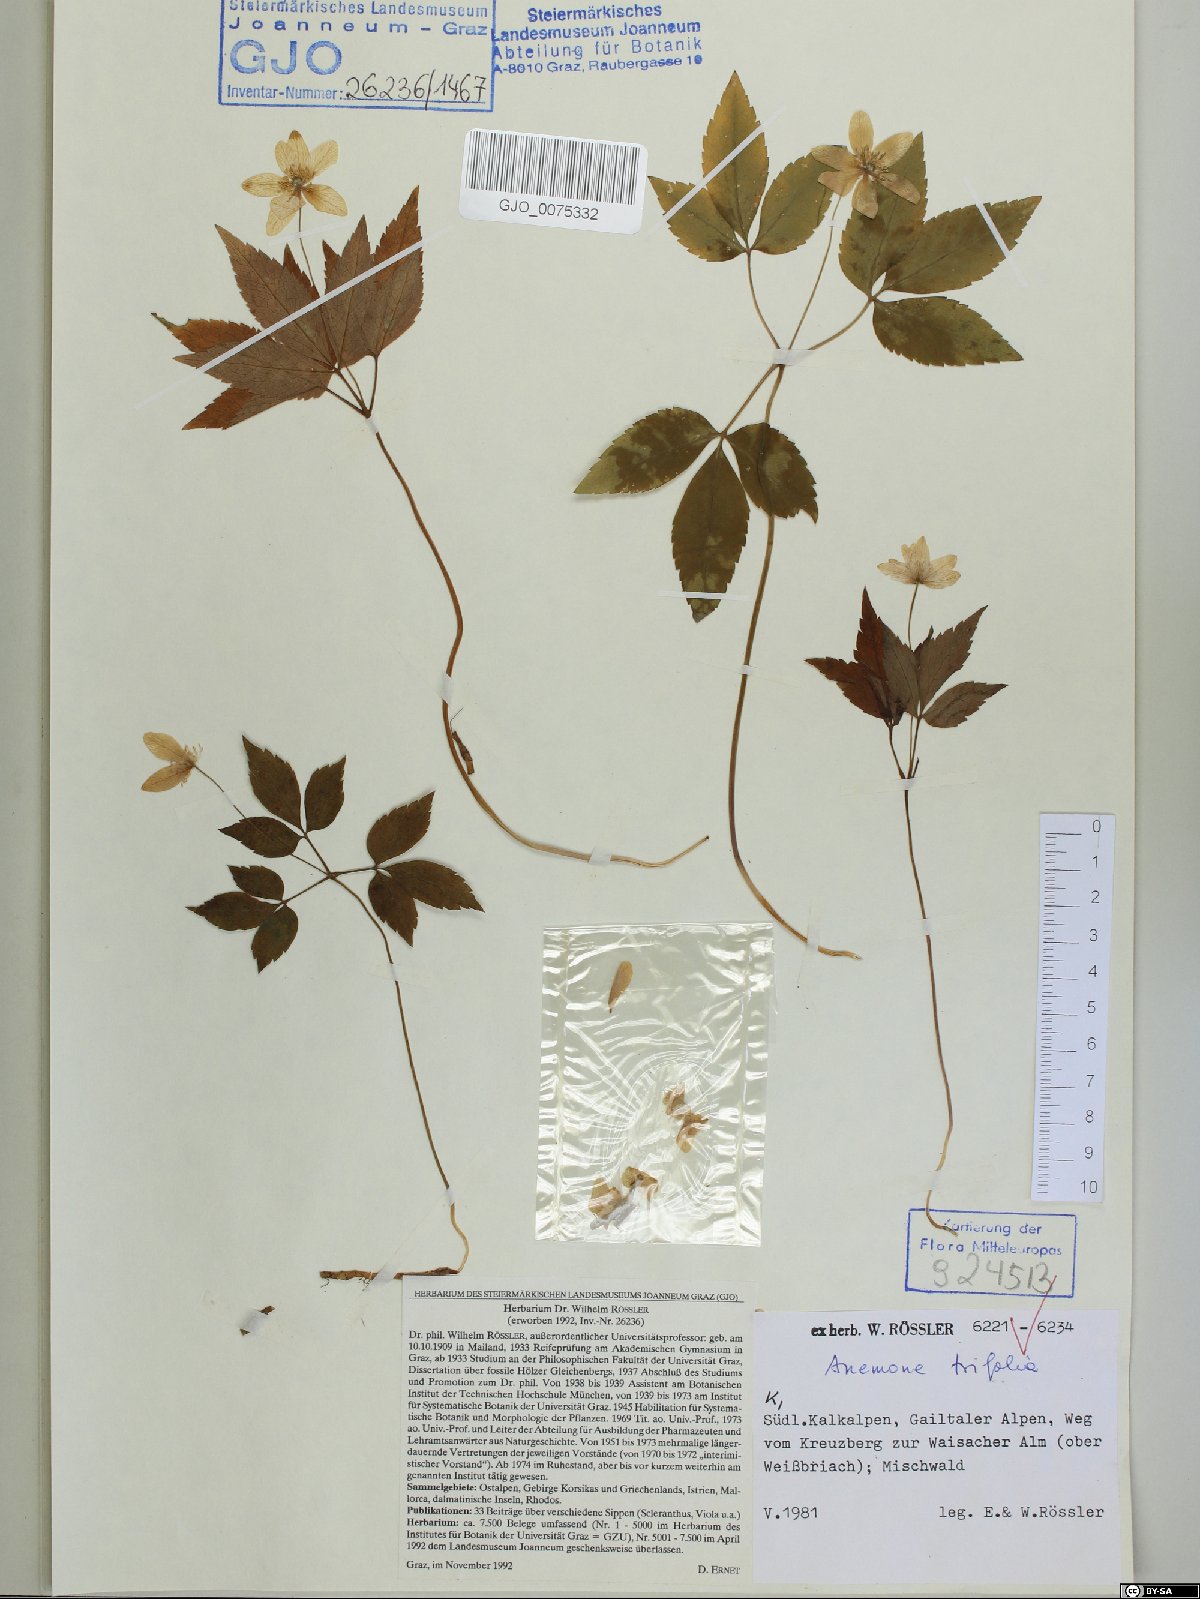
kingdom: Plantae
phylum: Tracheophyta
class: Magnoliopsida
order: Ranunculales
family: Ranunculaceae
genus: Anemone
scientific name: Anemone trifolia
